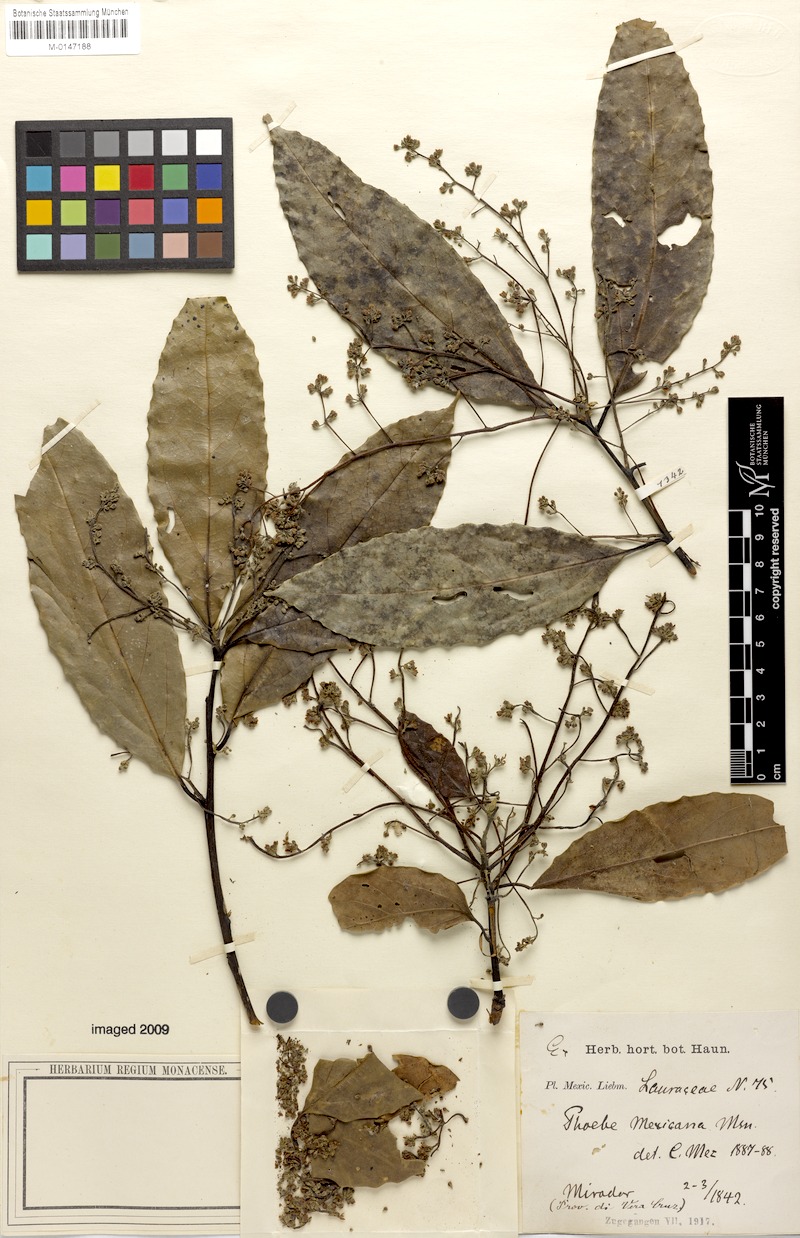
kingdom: Plantae
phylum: Tracheophyta
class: Magnoliopsida
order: Laurales
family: Lauraceae
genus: Aiouea
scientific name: Aiouea montana
